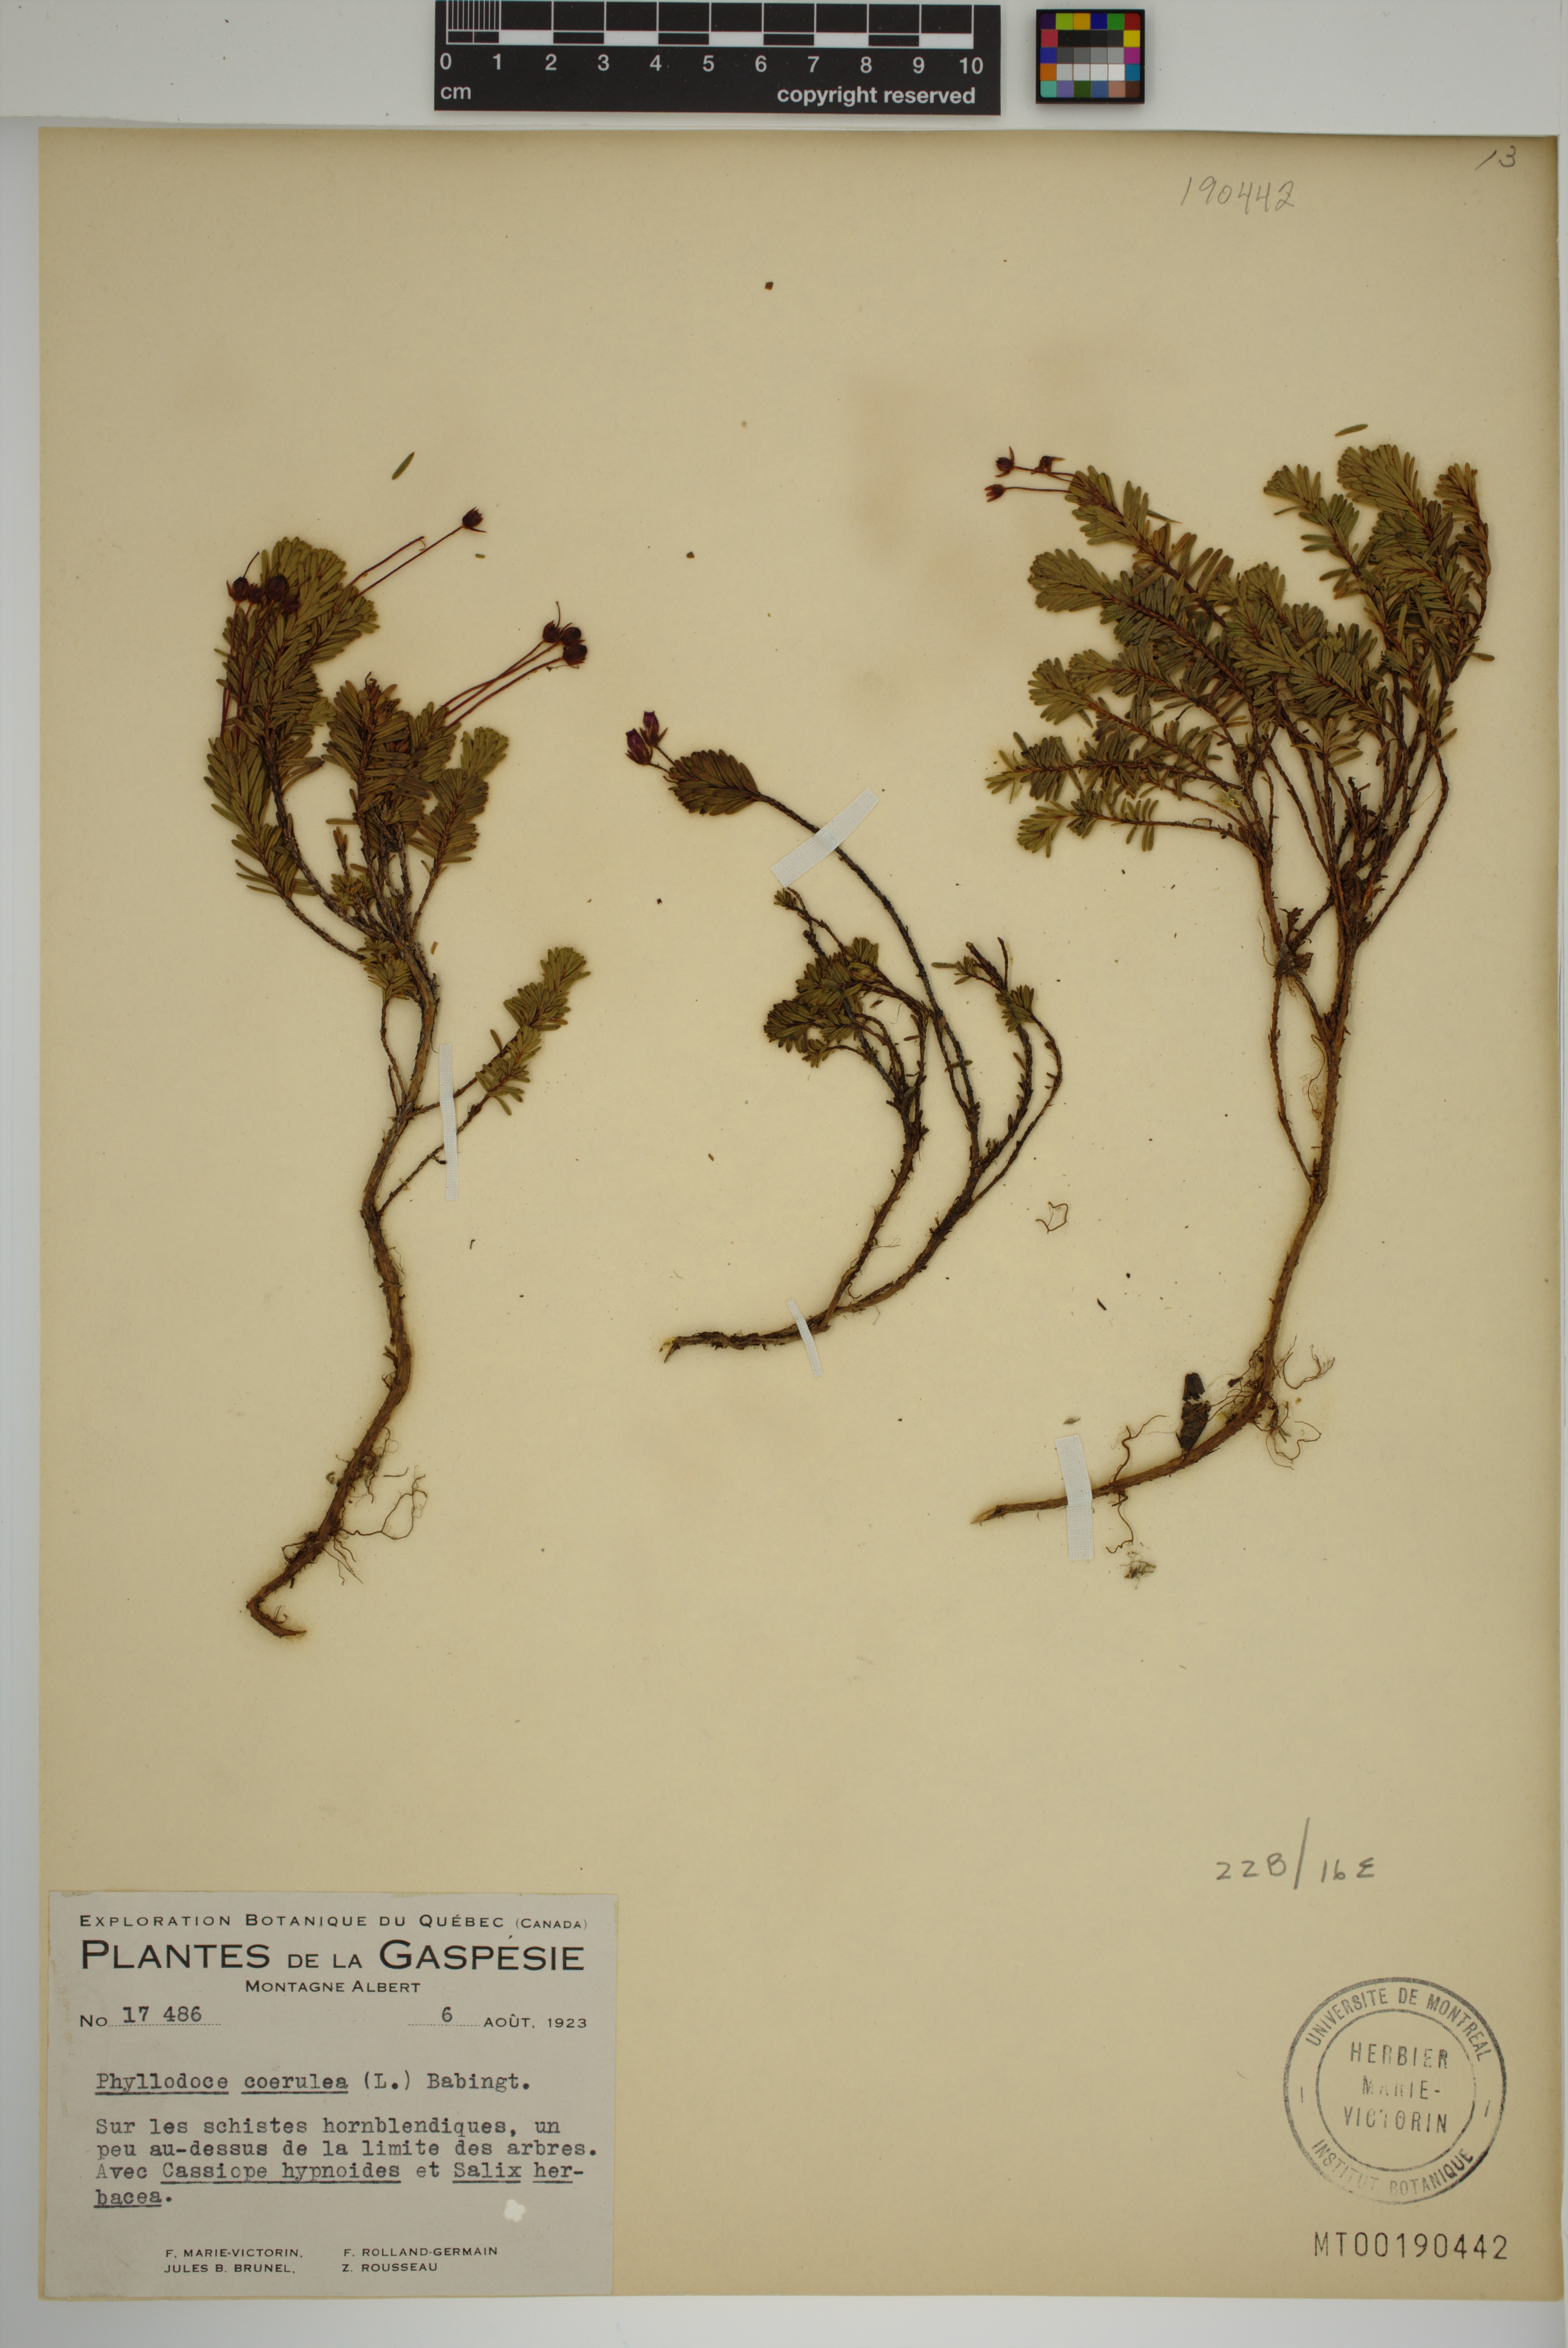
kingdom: Plantae
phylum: Tracheophyta
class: Magnoliopsida
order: Ericales
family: Ericaceae
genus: Phyllodoce
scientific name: Phyllodoce caerulea
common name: Blue heath
